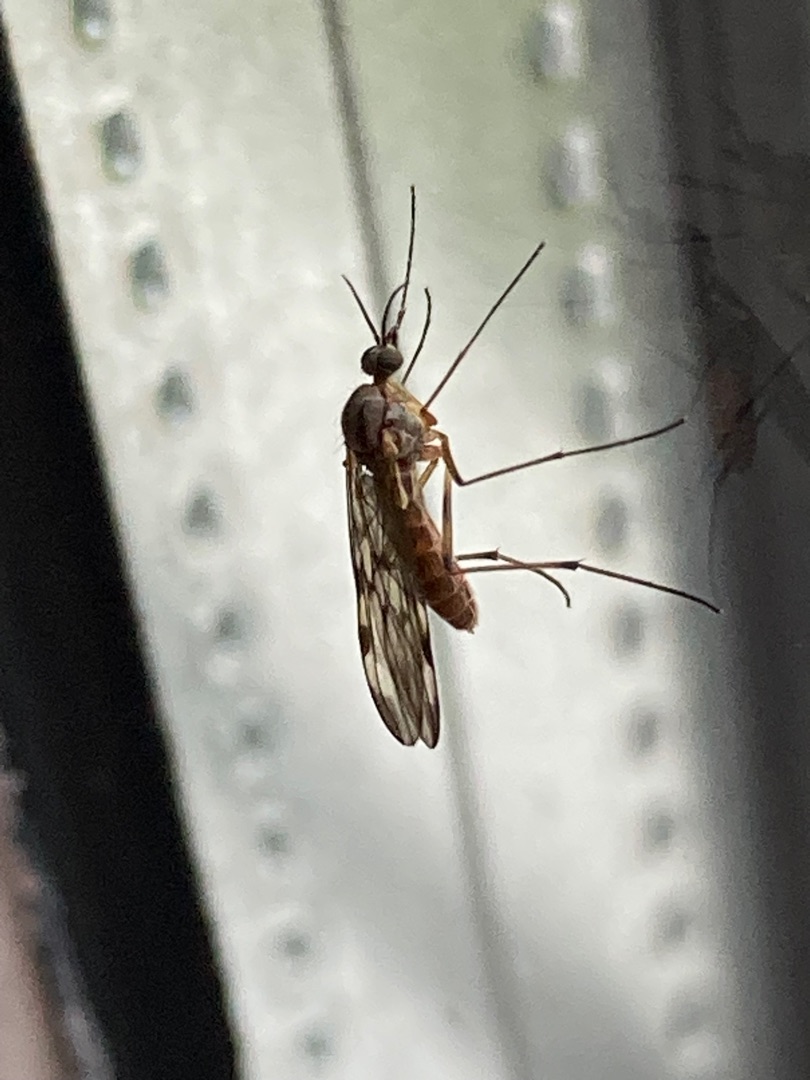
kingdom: Animalia
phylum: Arthropoda
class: Insecta
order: Diptera
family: Anisopodidae
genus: Sylvicola
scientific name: Sylvicola
